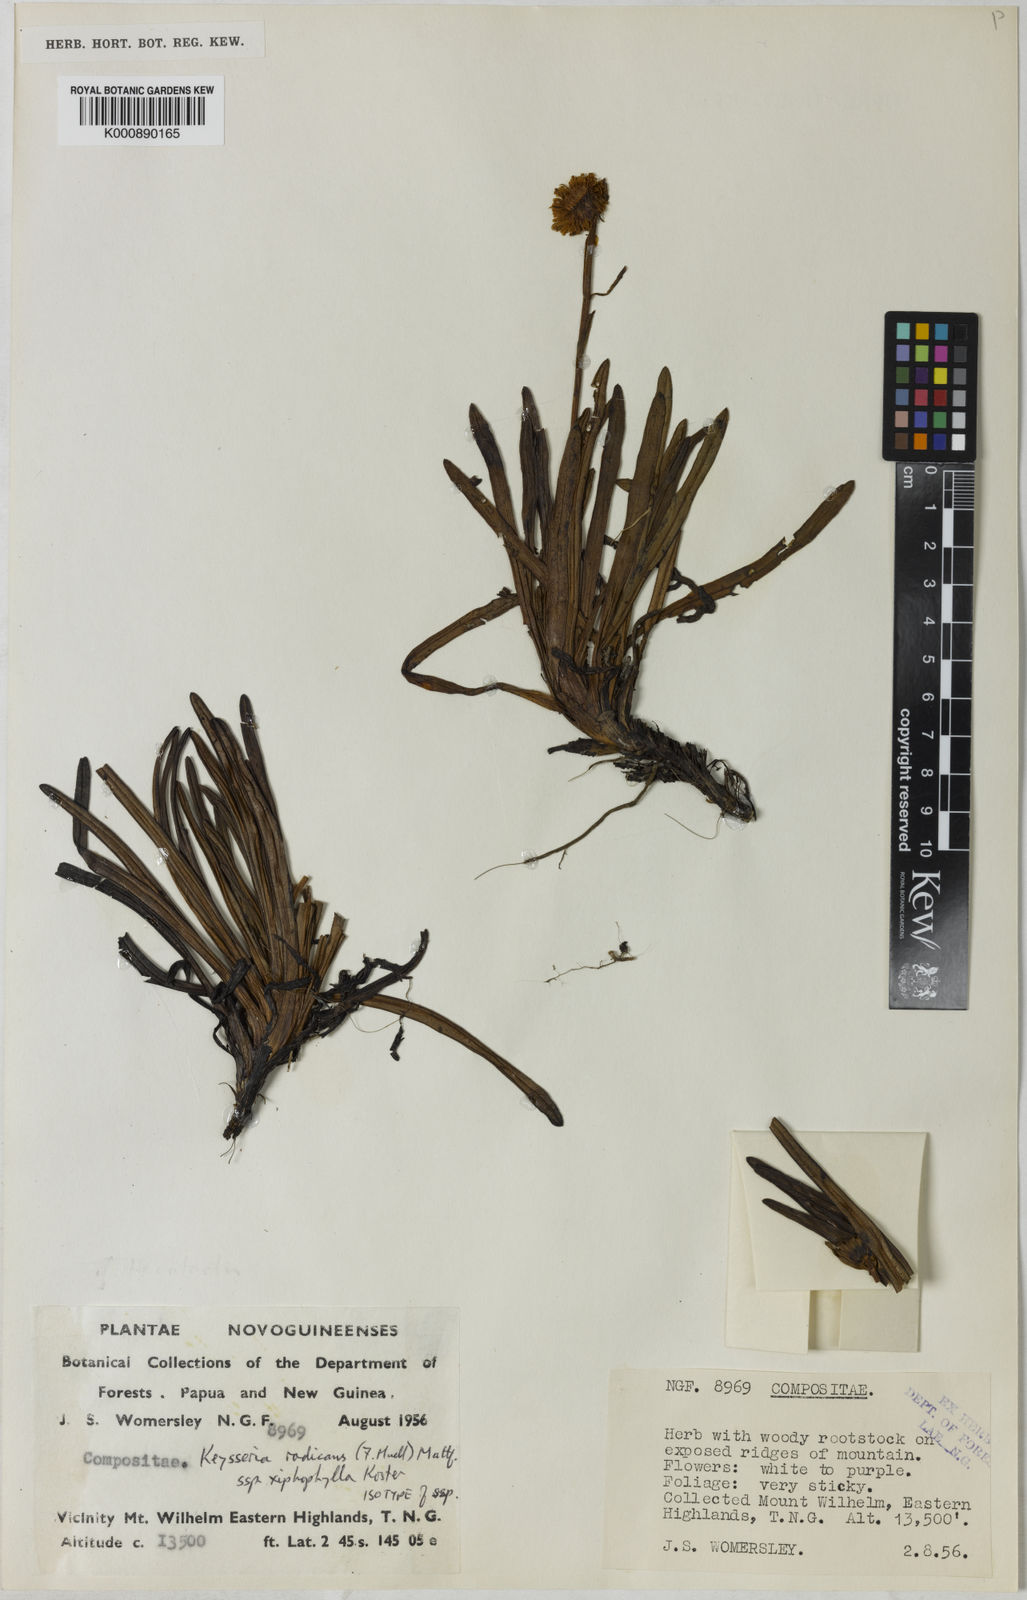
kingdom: Plantae
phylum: Tracheophyta
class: Magnoliopsida
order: Asterales
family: Asteraceae
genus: Keysseria
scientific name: Keysseria radicans
